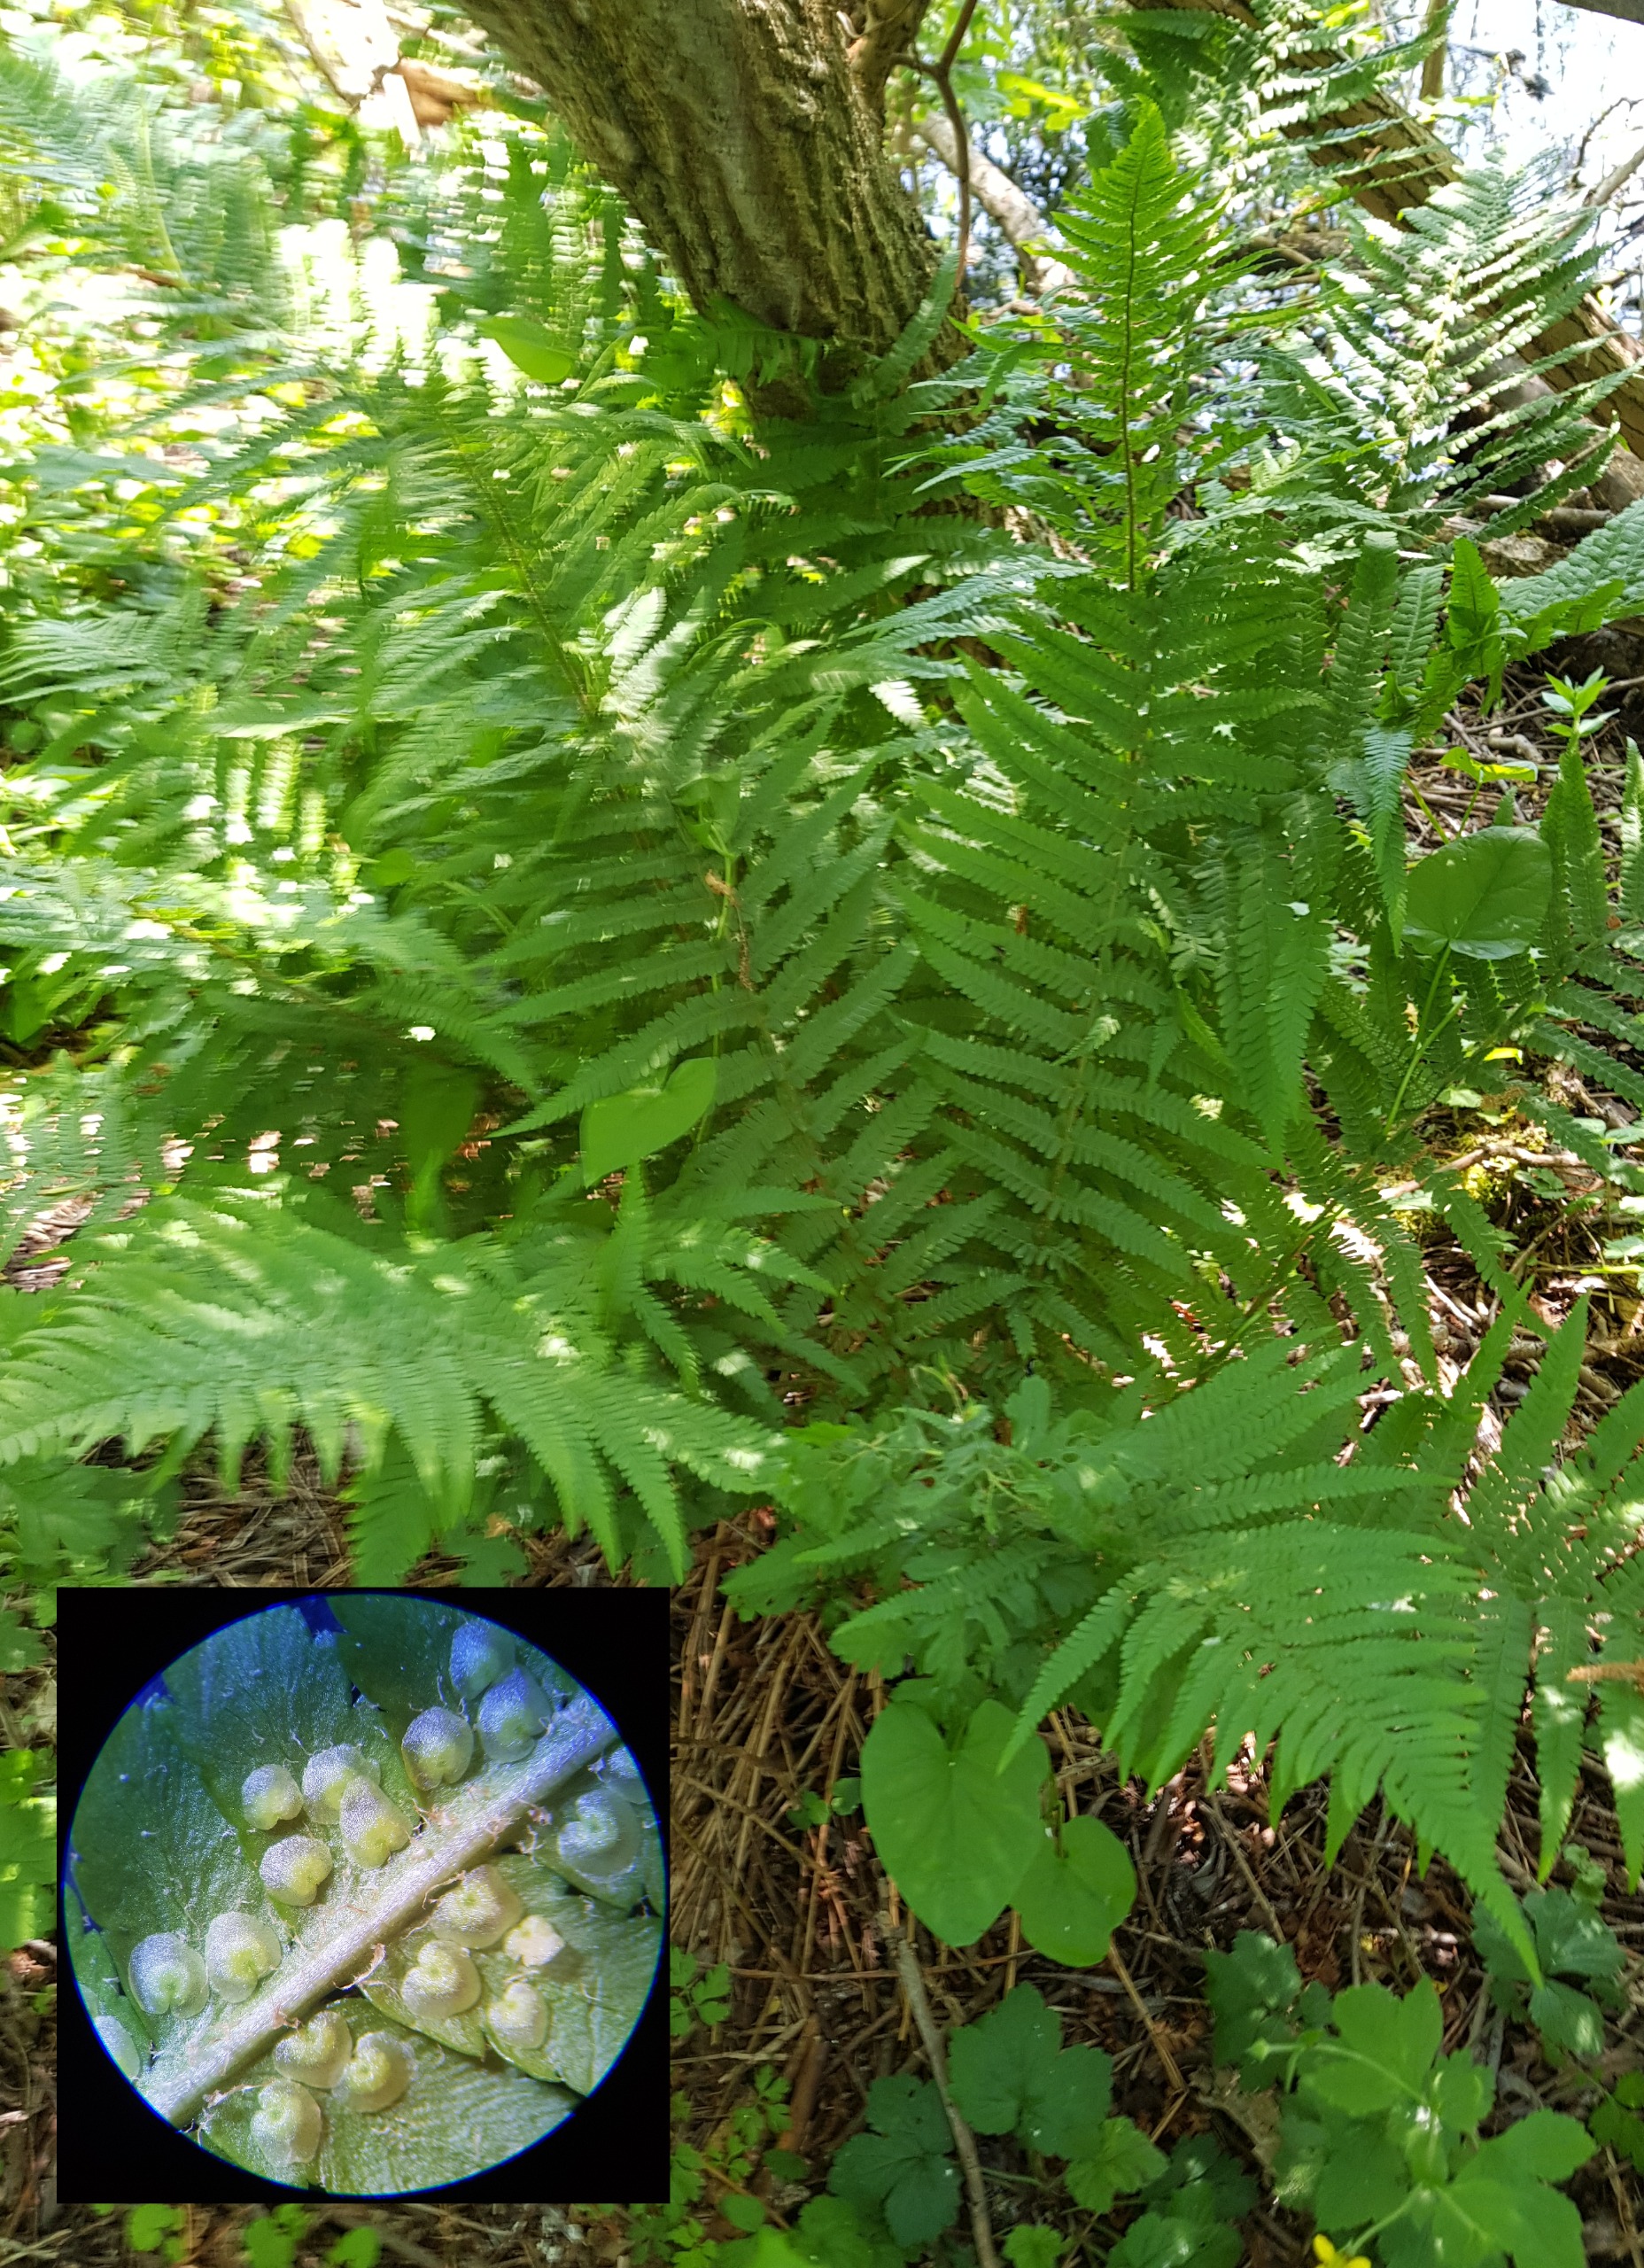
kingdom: Plantae
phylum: Tracheophyta
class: Polypodiopsida
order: Polypodiales
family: Dryopteridaceae
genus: Dryopteris
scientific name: Dryopteris filix-mas
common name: Almindelig mangeløv
